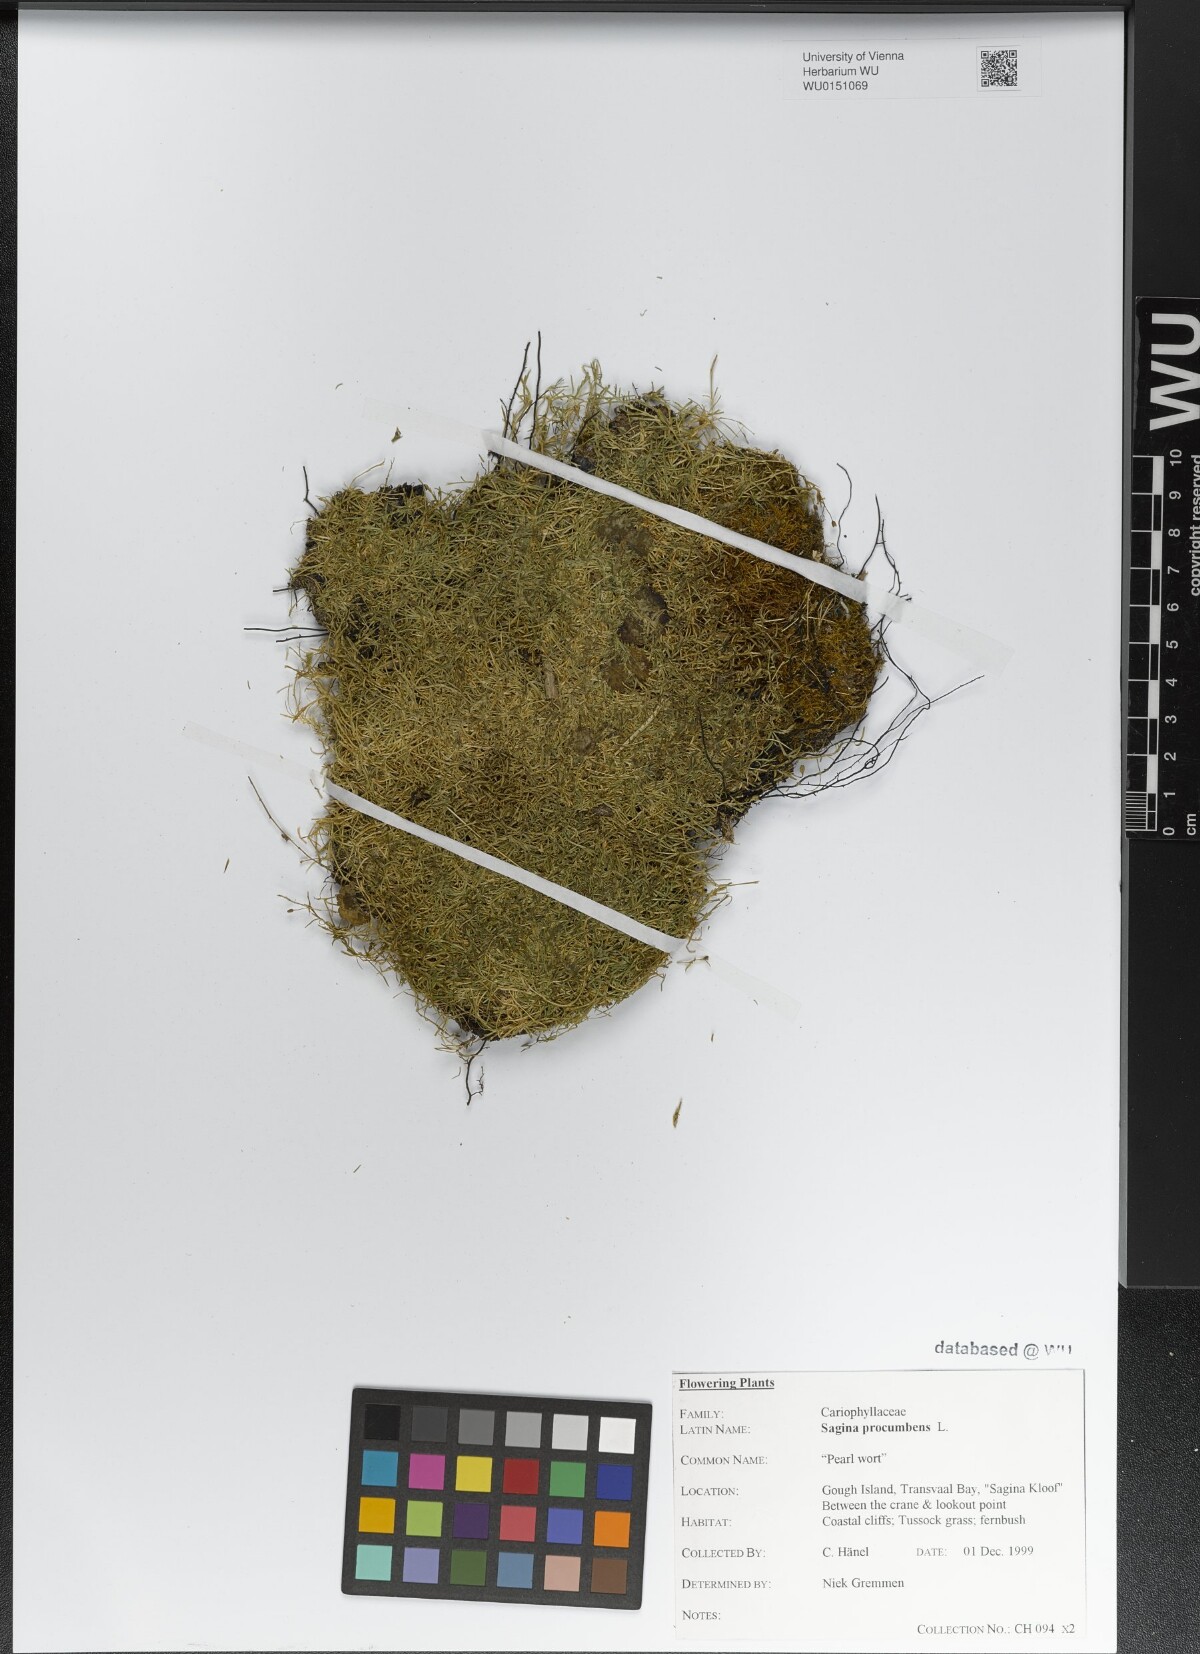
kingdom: Plantae
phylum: Tracheophyta
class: Magnoliopsida
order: Caryophyllales
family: Caryophyllaceae
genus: Sagina
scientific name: Sagina procumbens
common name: Procumbent pearlwort
